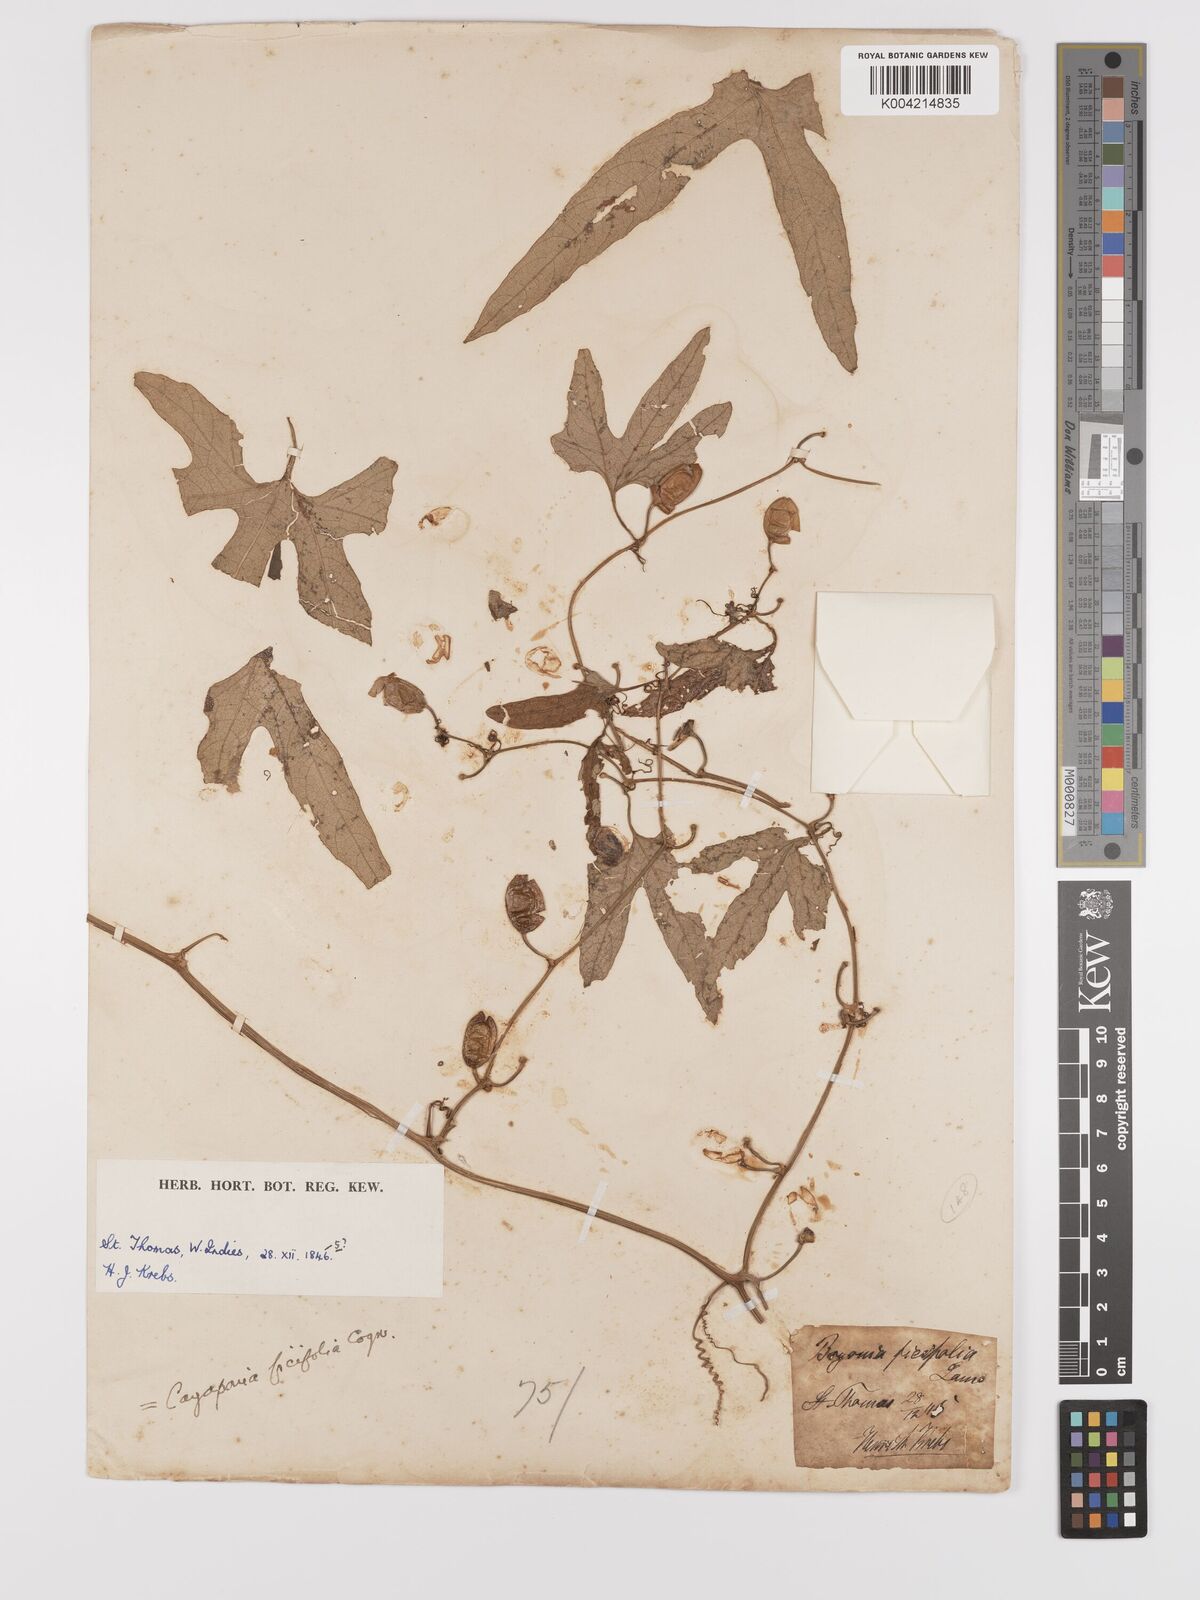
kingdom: Plantae
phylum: Tracheophyta
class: Magnoliopsida
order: Cucurbitales
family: Cucurbitaceae
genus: Cayaponia
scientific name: Cayaponia americana
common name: American melonleaf
